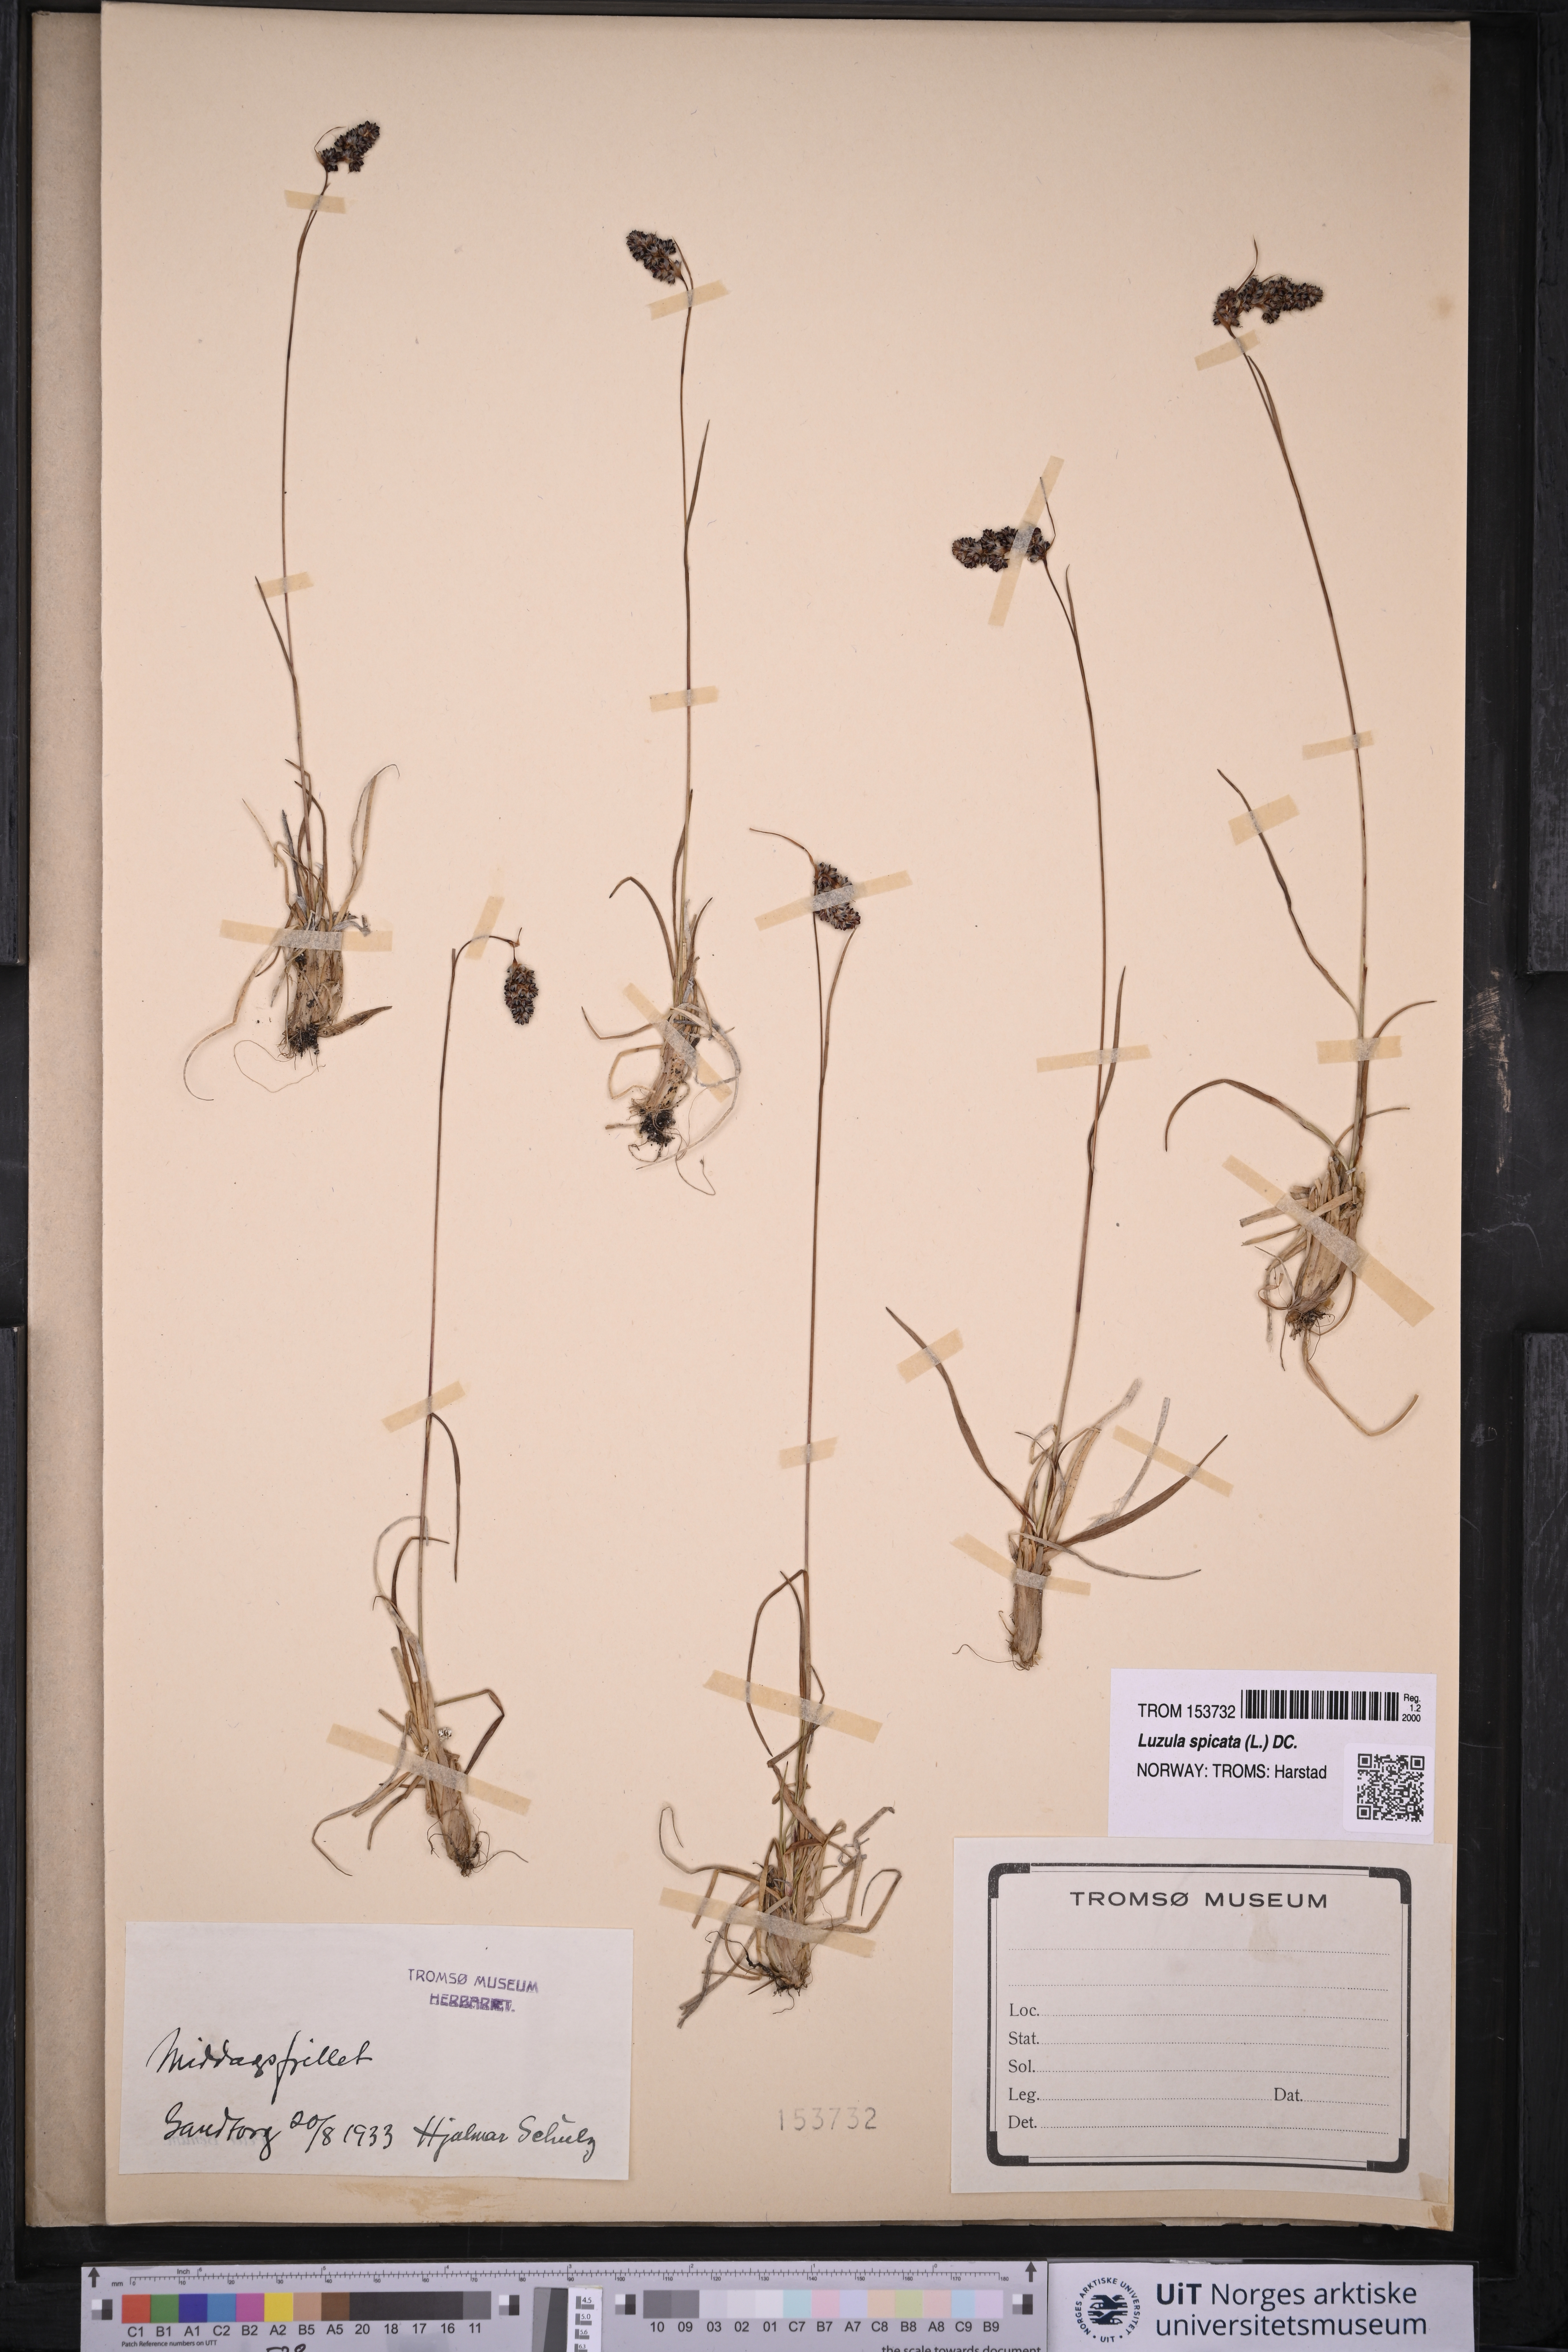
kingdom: Plantae
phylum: Tracheophyta
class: Liliopsida
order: Poales
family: Juncaceae
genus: Luzula
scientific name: Luzula spicata
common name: Spiked wood-rush
